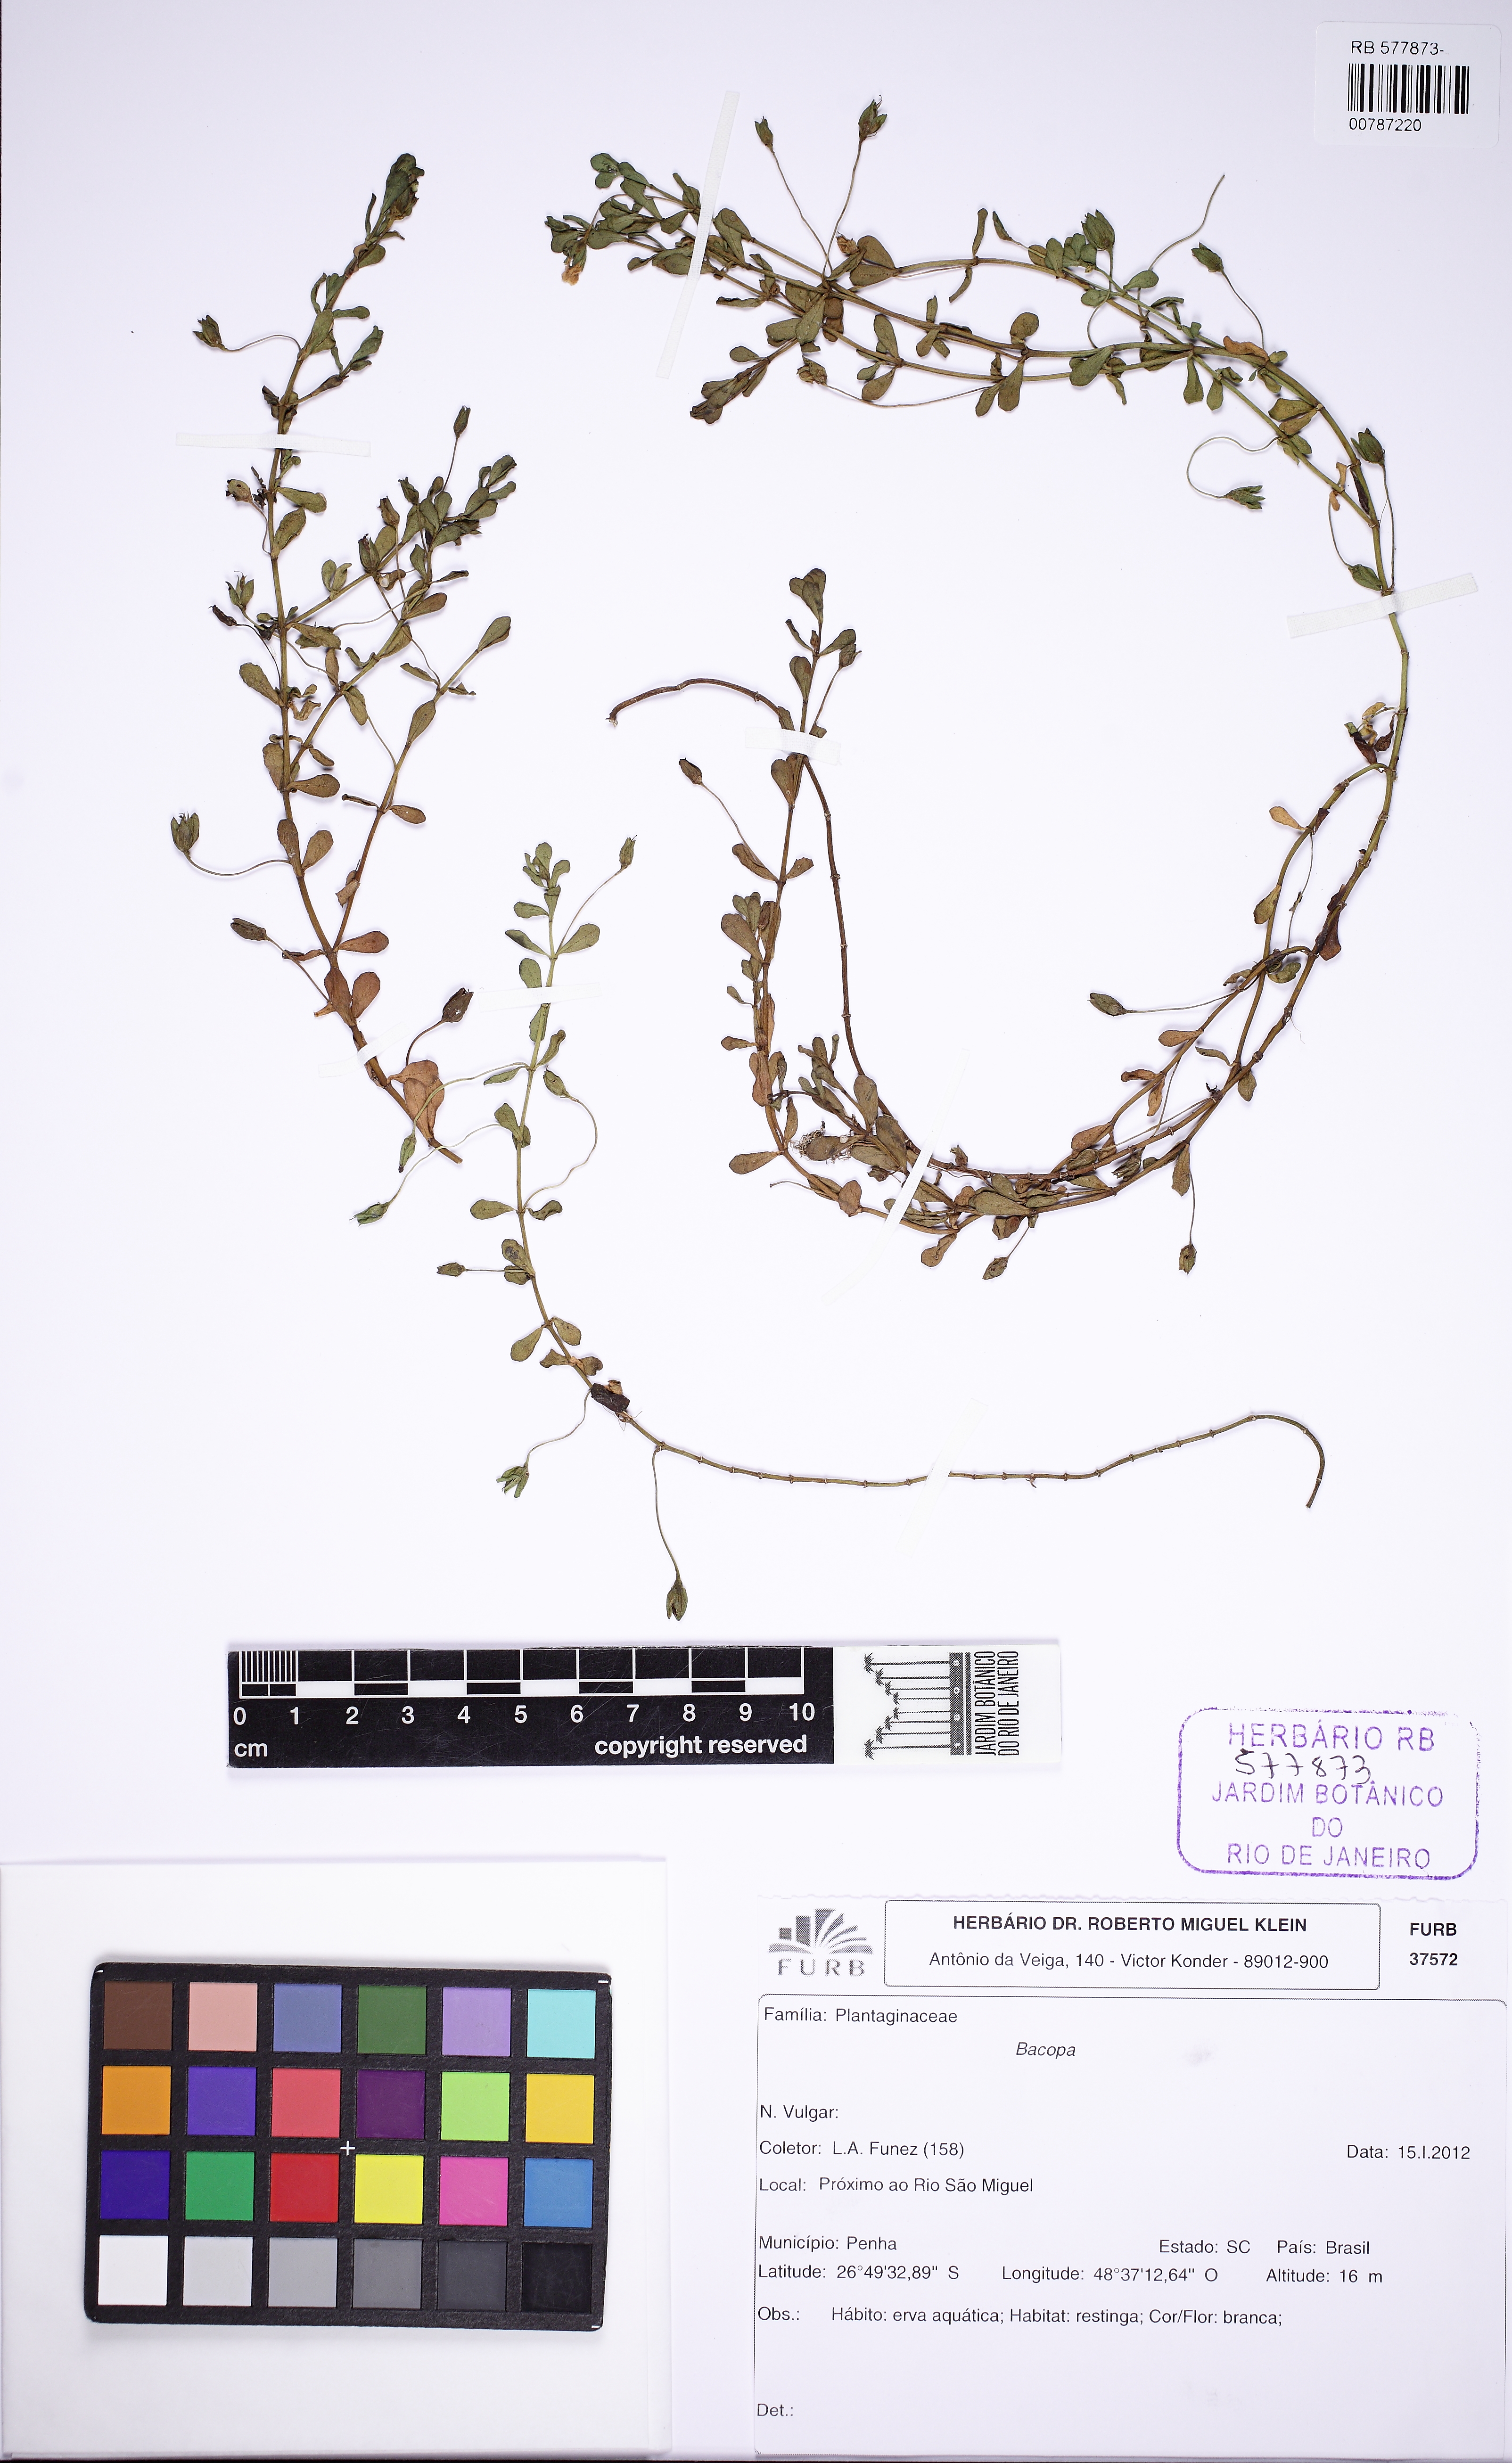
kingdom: Plantae
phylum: Tracheophyta
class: Magnoliopsida
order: Lamiales
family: Plantaginaceae
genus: Bacopa
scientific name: Bacopa monnieri
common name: Indian-pennywort
